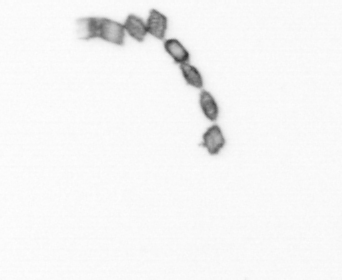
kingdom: Chromista
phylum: Ochrophyta
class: Bacillariophyceae
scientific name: Bacillariophyceae
